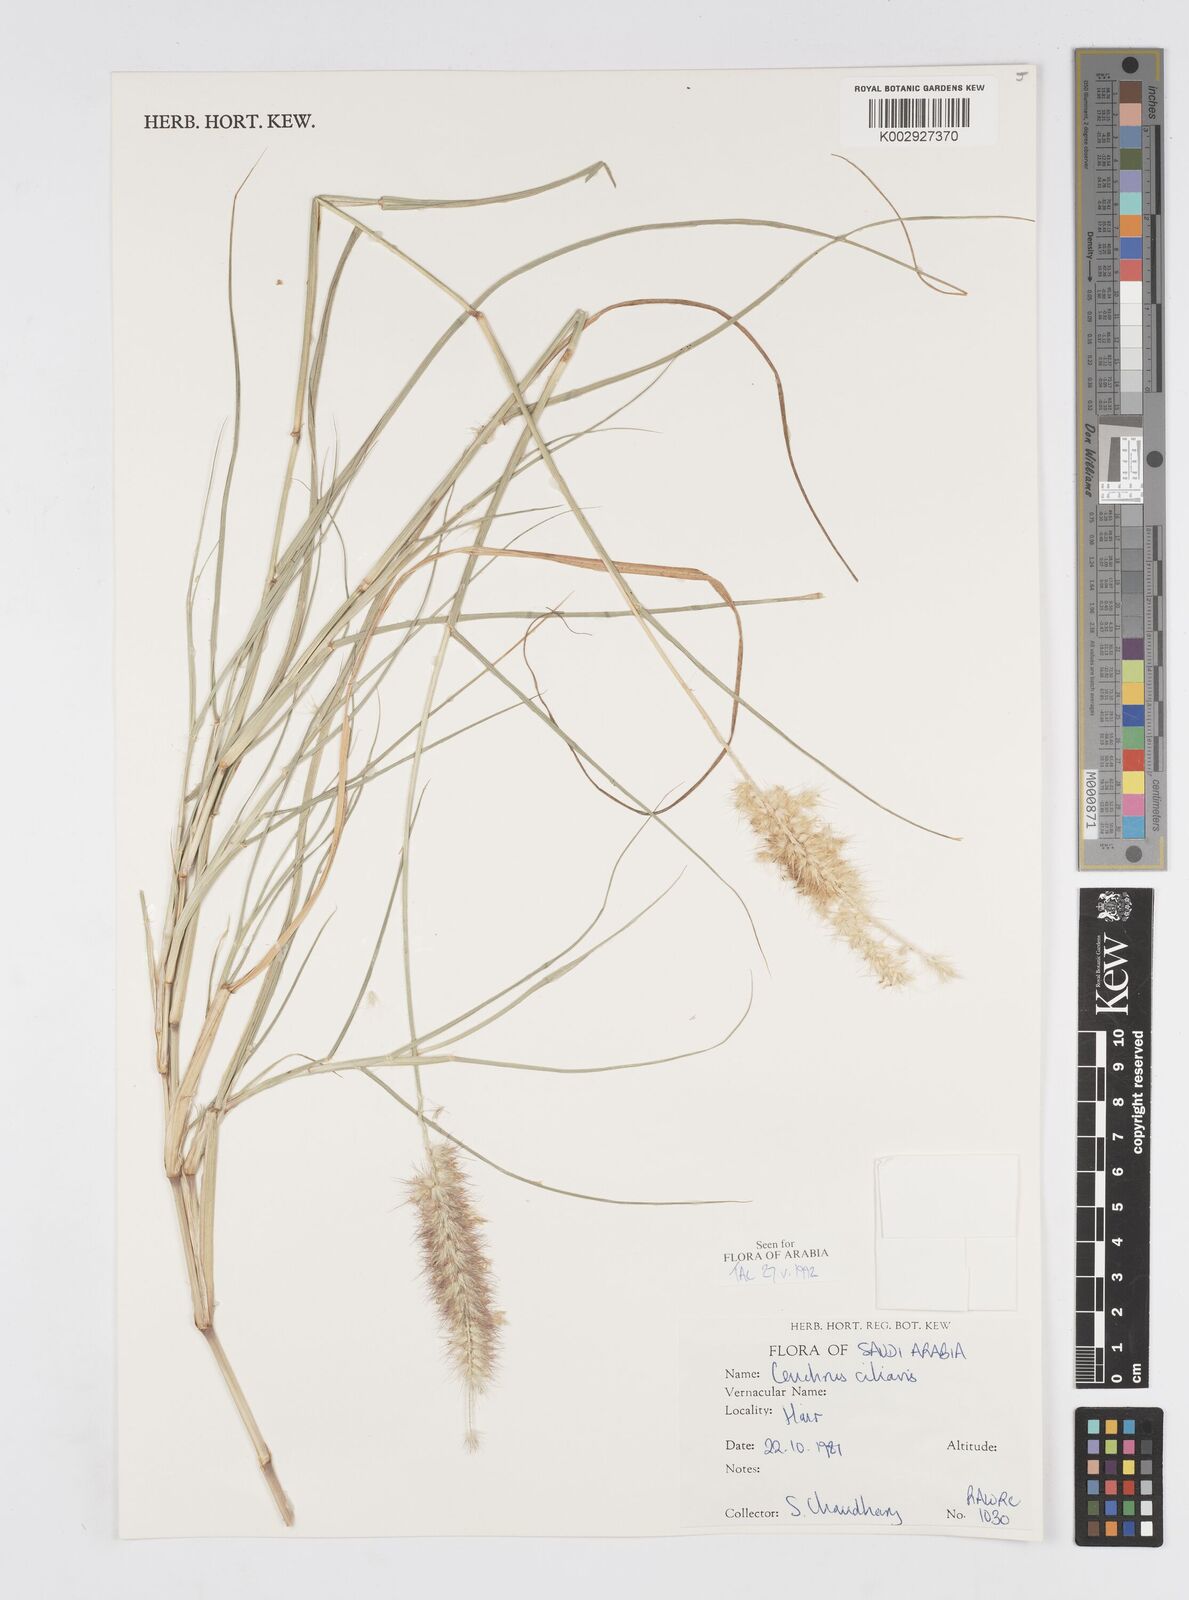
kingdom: Plantae
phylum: Tracheophyta
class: Liliopsida
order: Poales
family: Poaceae
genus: Cenchrus
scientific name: Cenchrus ciliaris
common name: Buffelgrass
